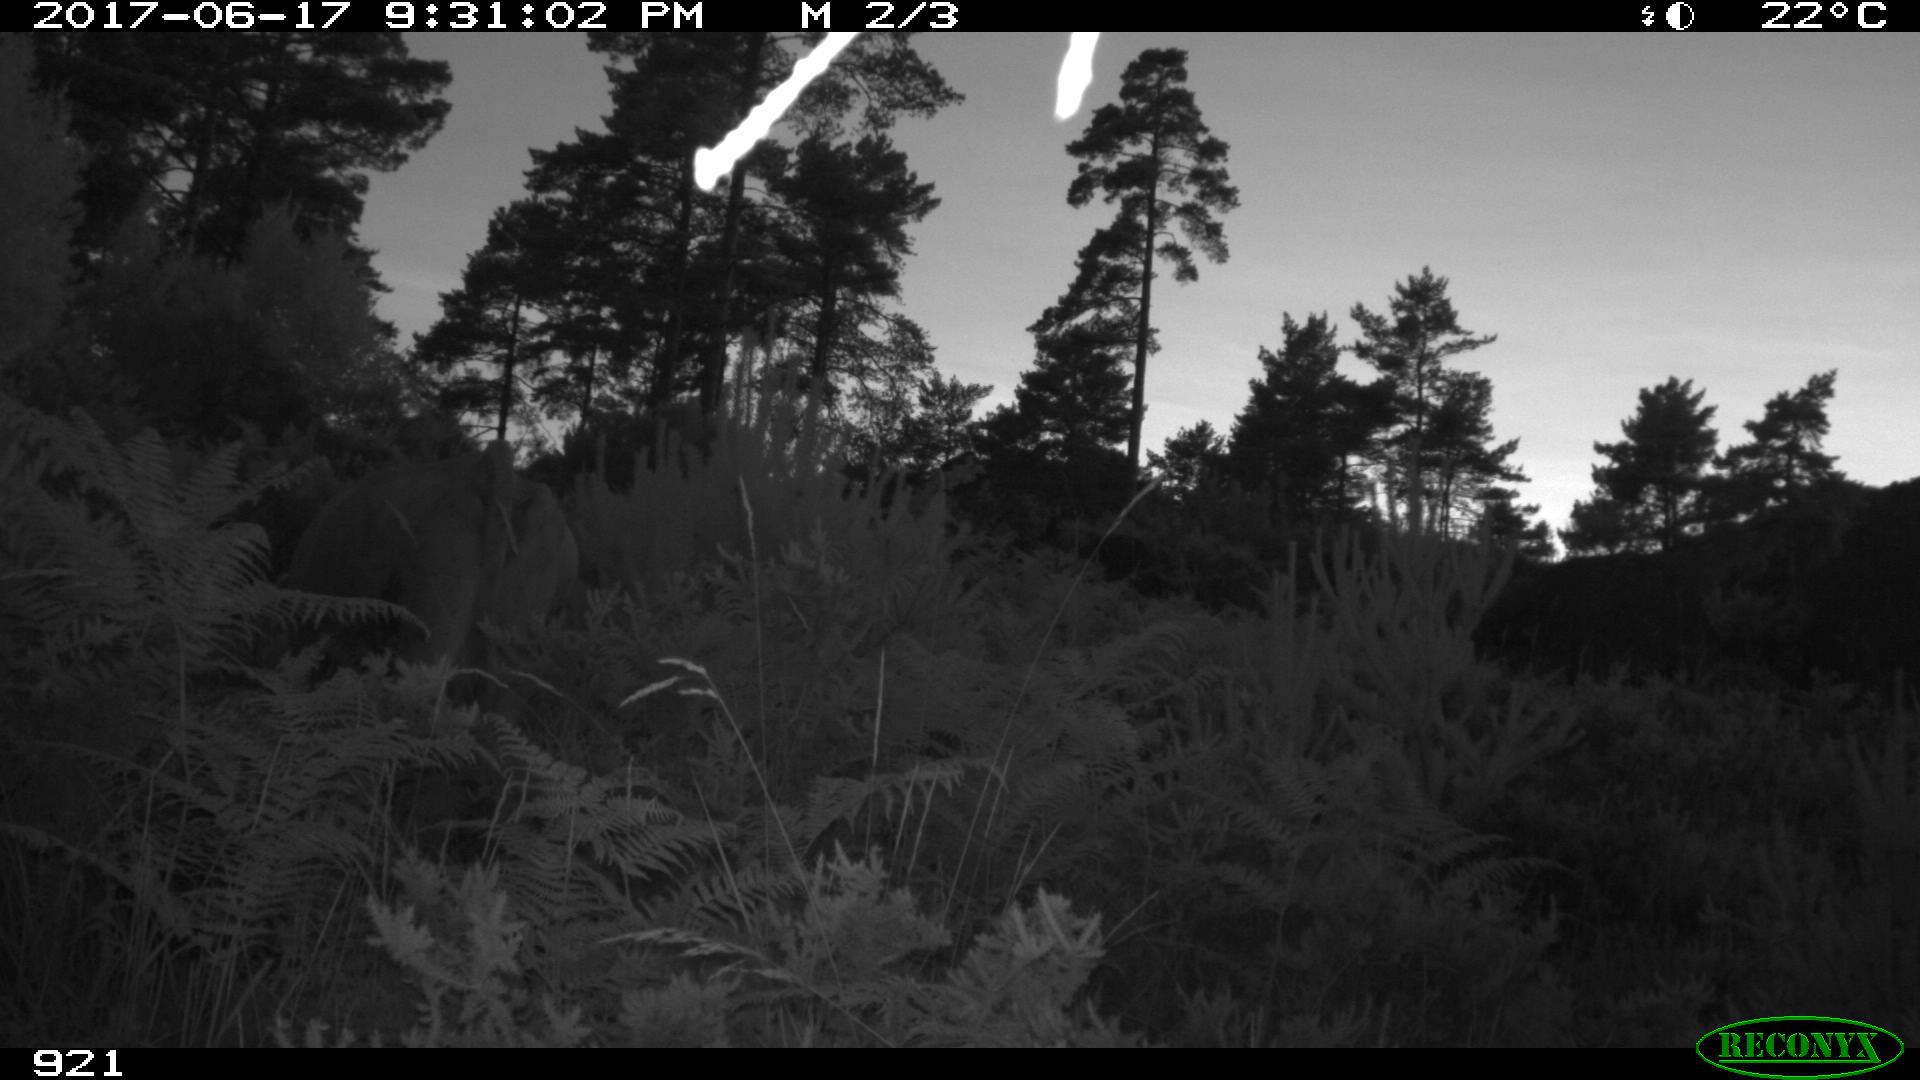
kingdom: Animalia
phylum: Chordata
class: Mammalia
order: Artiodactyla
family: Bovidae
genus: Bos
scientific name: Bos taurus
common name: Domesticated cattle
